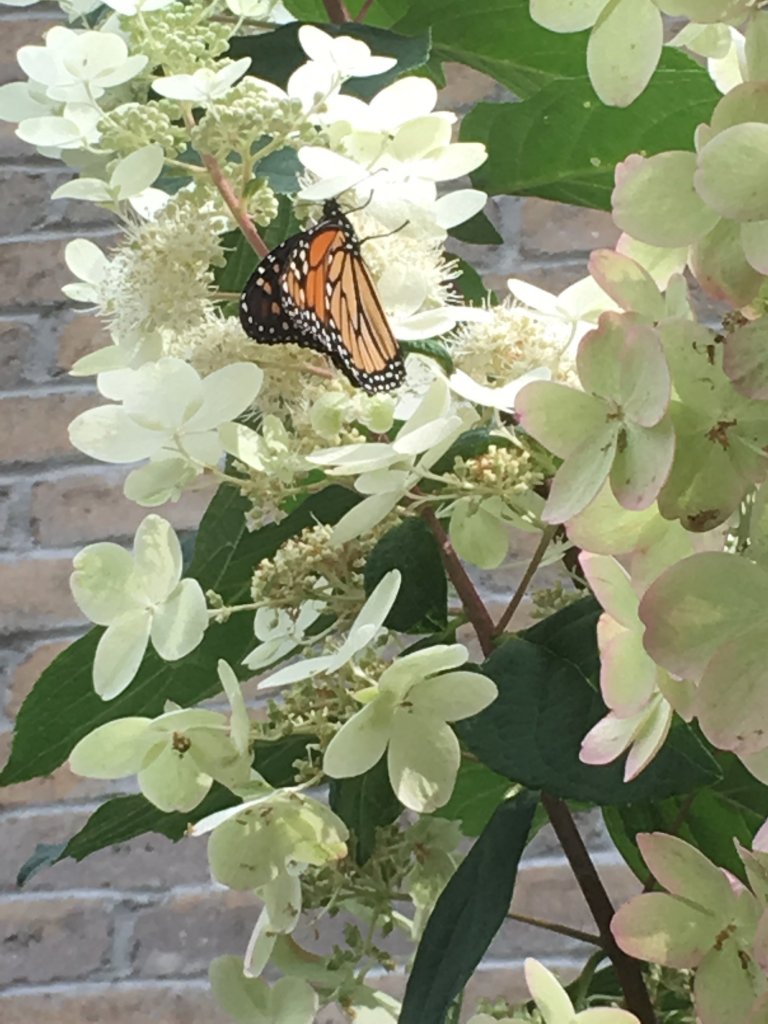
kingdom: Animalia
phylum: Arthropoda
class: Insecta
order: Lepidoptera
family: Nymphalidae
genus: Danaus
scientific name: Danaus plexippus
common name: Monarch
